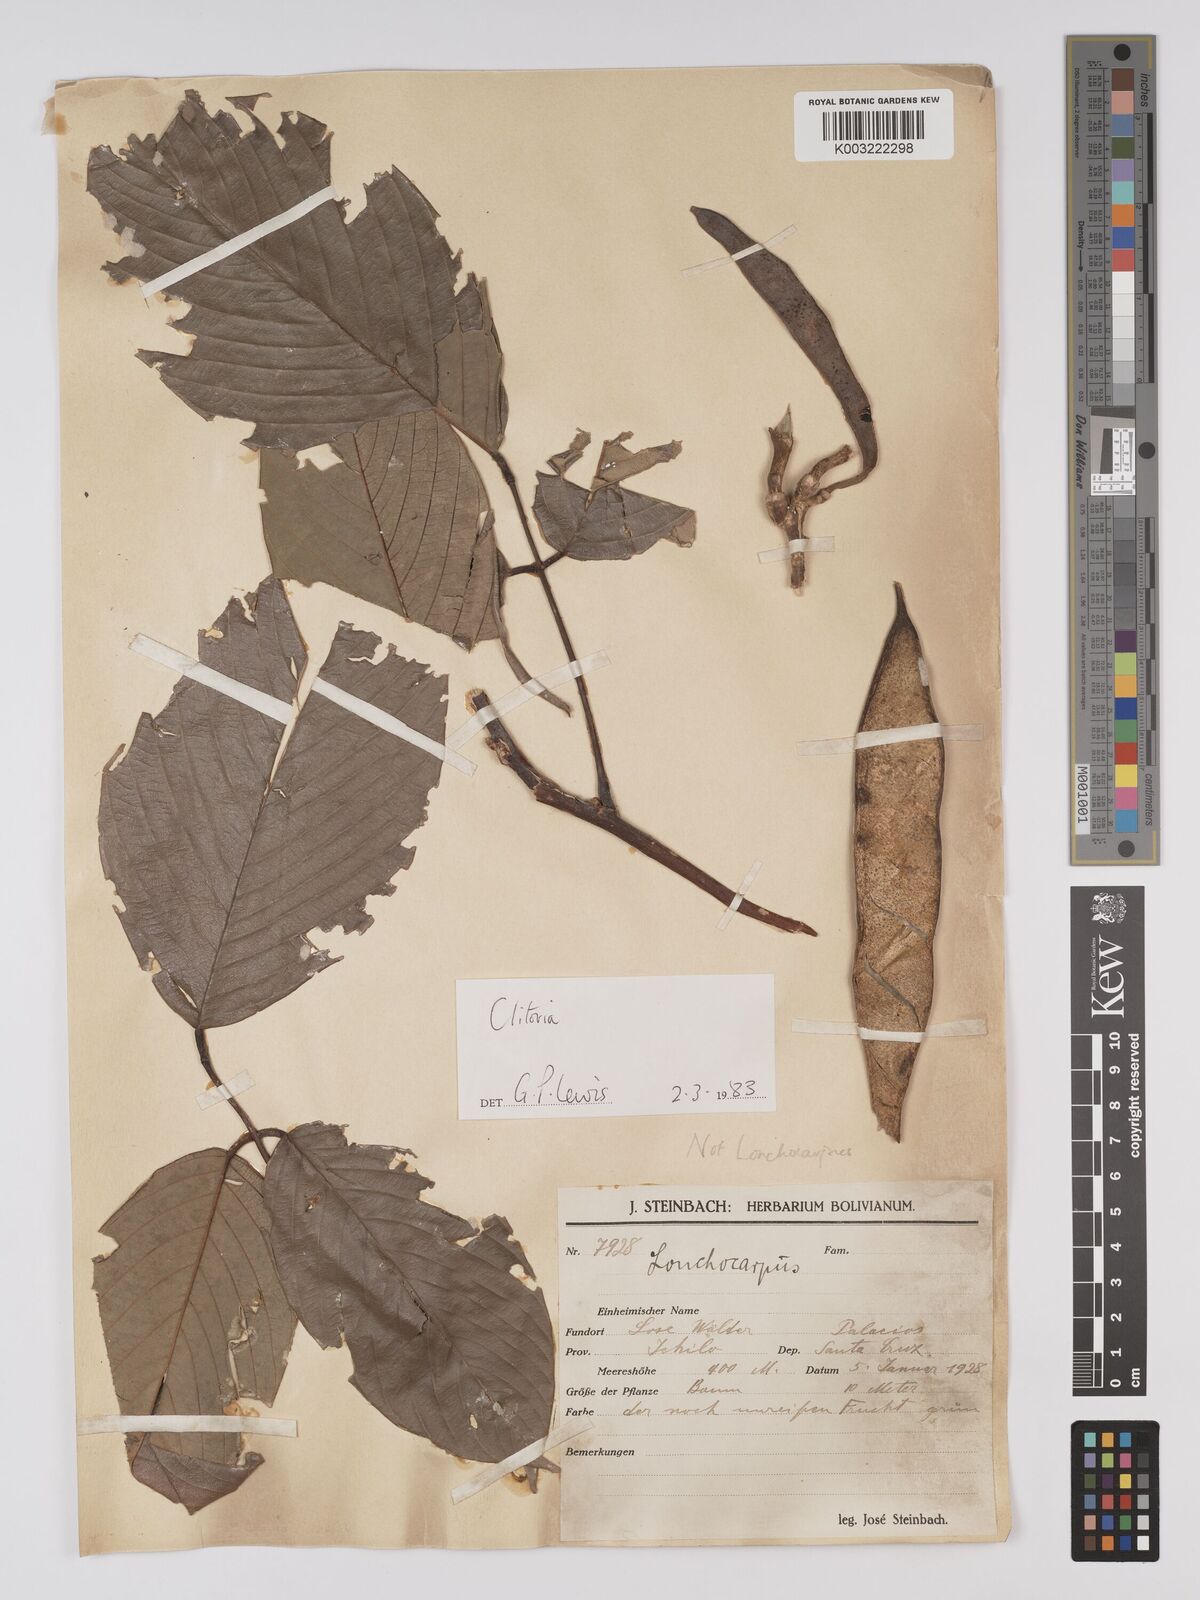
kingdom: Plantae
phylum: Tracheophyta
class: Magnoliopsida
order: Fabales
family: Fabaceae
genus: Clitoria
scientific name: Clitoria
